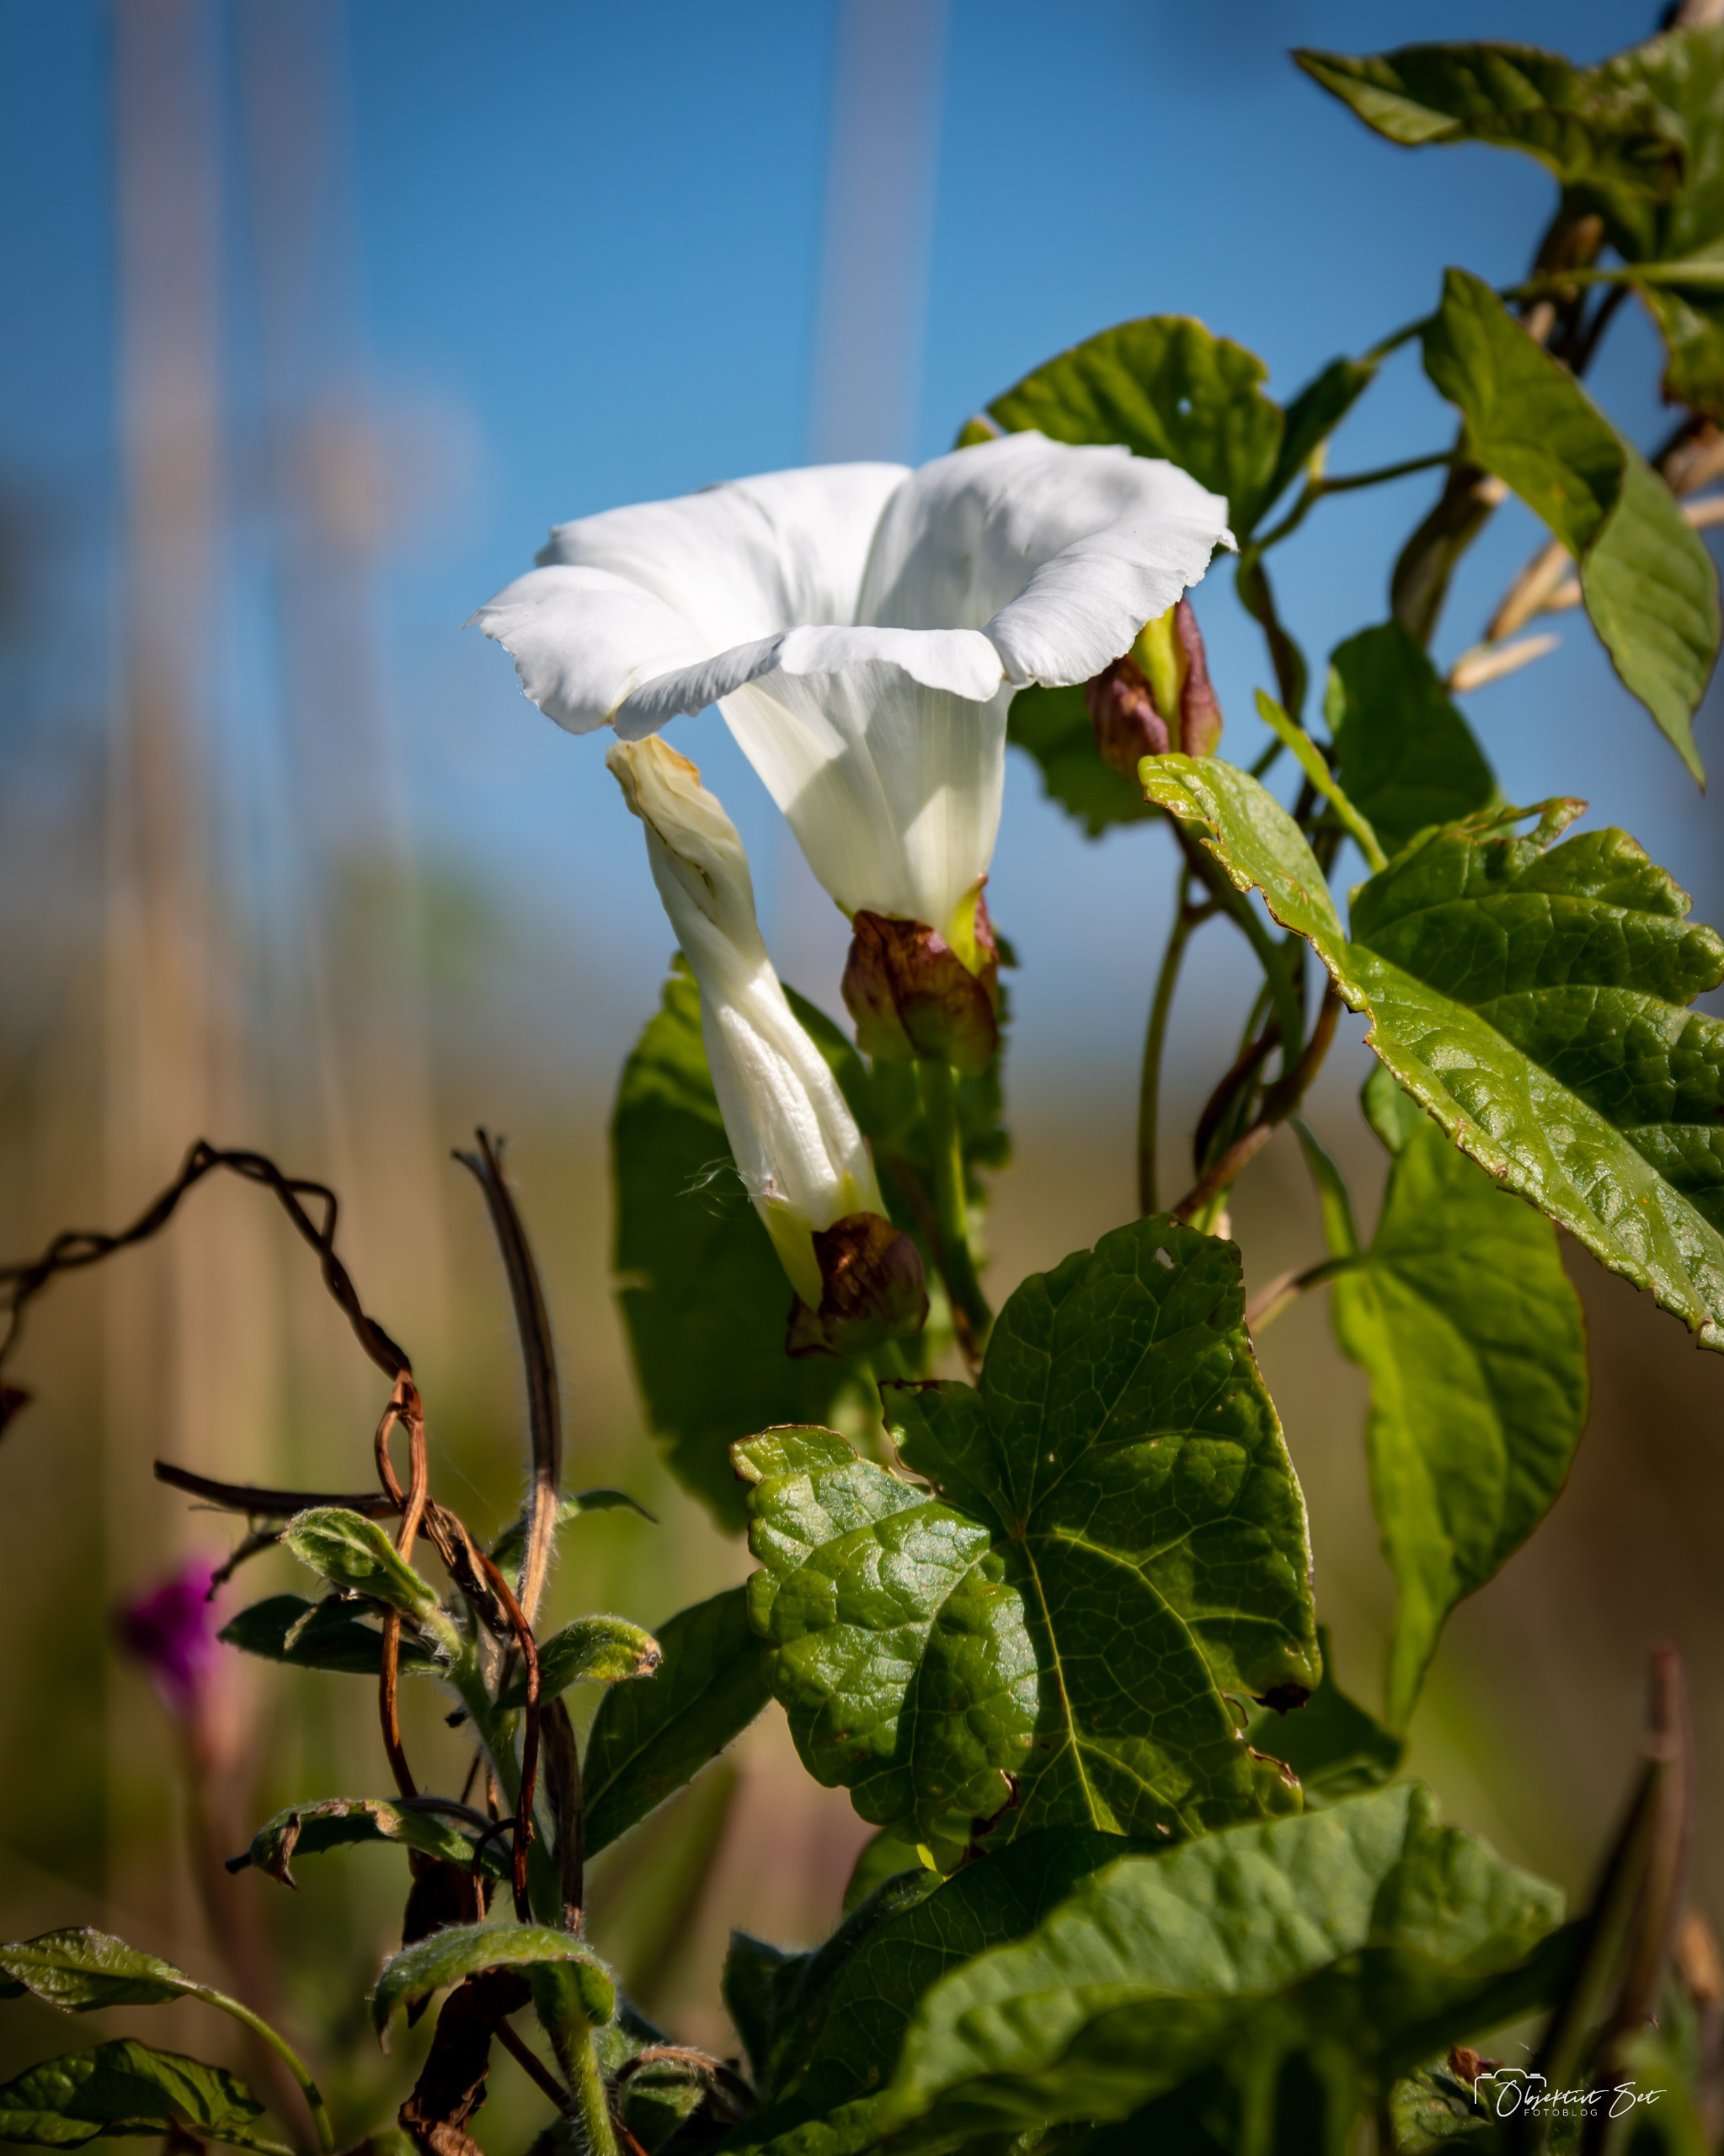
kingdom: Plantae
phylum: Tracheophyta
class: Magnoliopsida
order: Solanales
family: Convolvulaceae
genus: Calystegia
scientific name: Calystegia sepium
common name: Gærde-snerle
